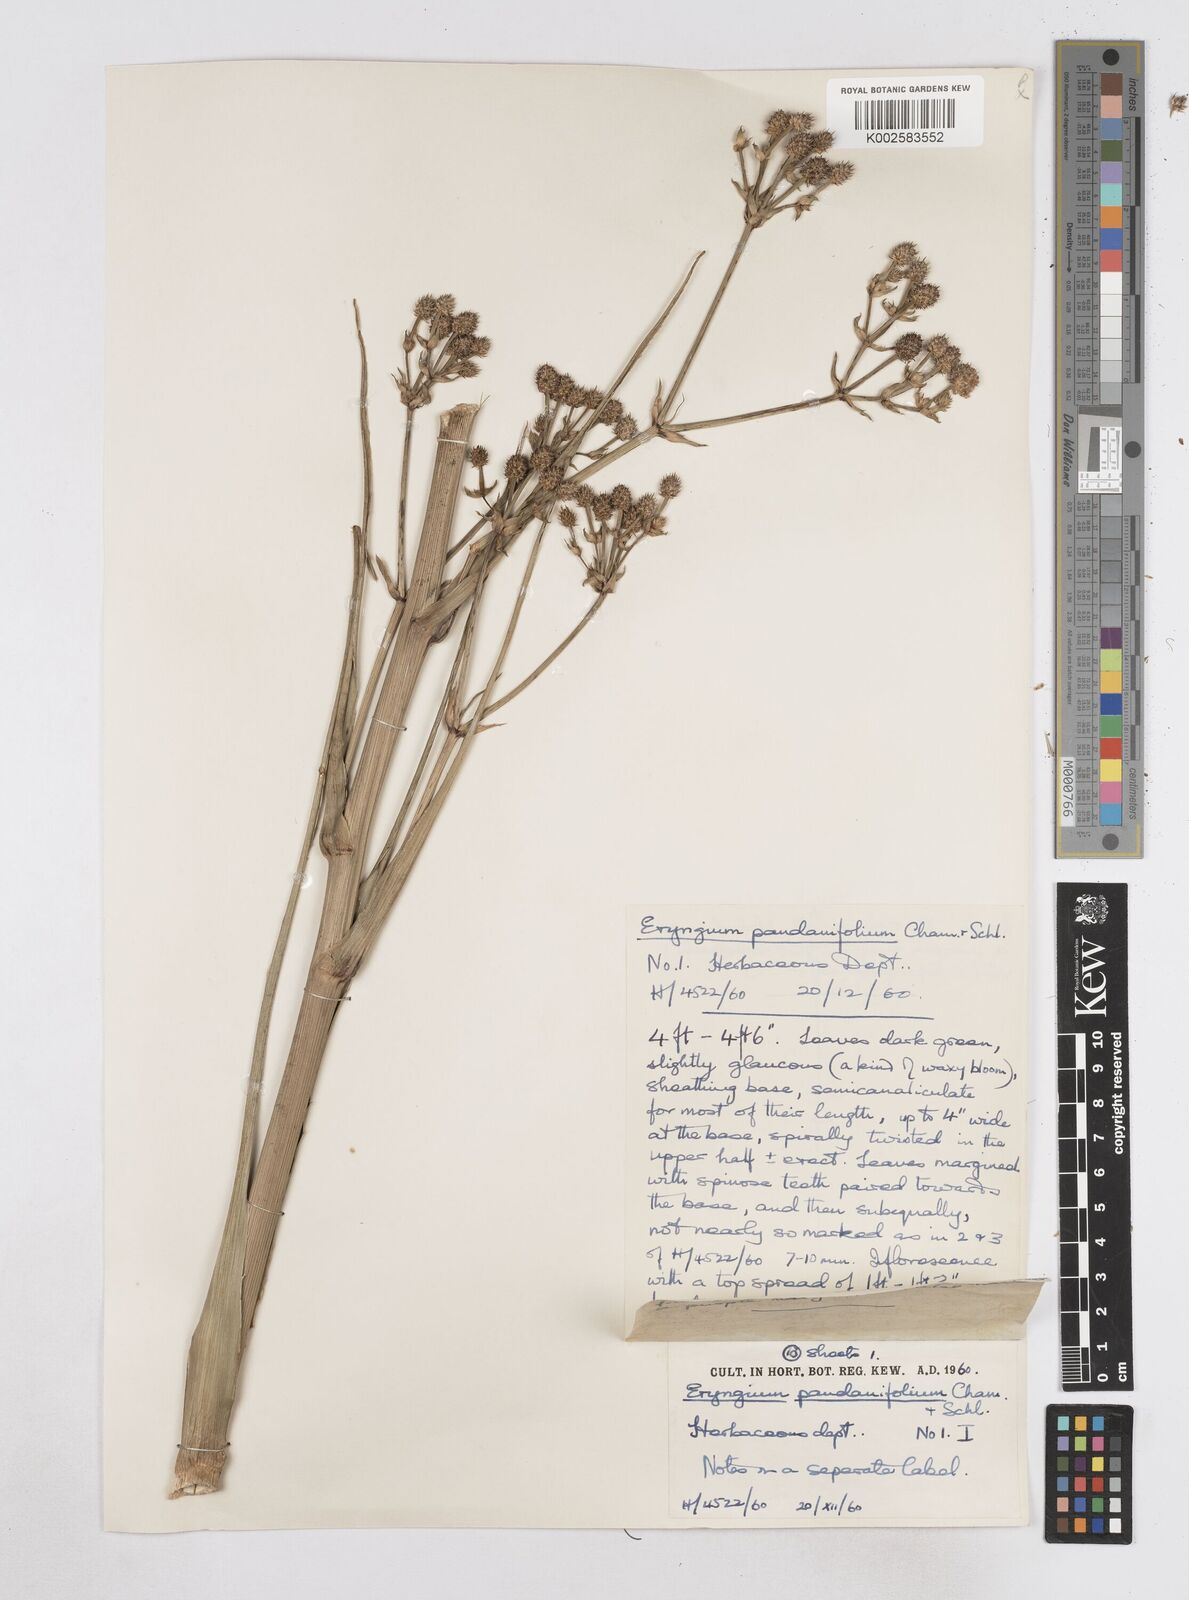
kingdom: Plantae
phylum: Tracheophyta
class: Magnoliopsida
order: Apiales
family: Apiaceae
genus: Eryngium
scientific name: Eryngium pandanifolium
